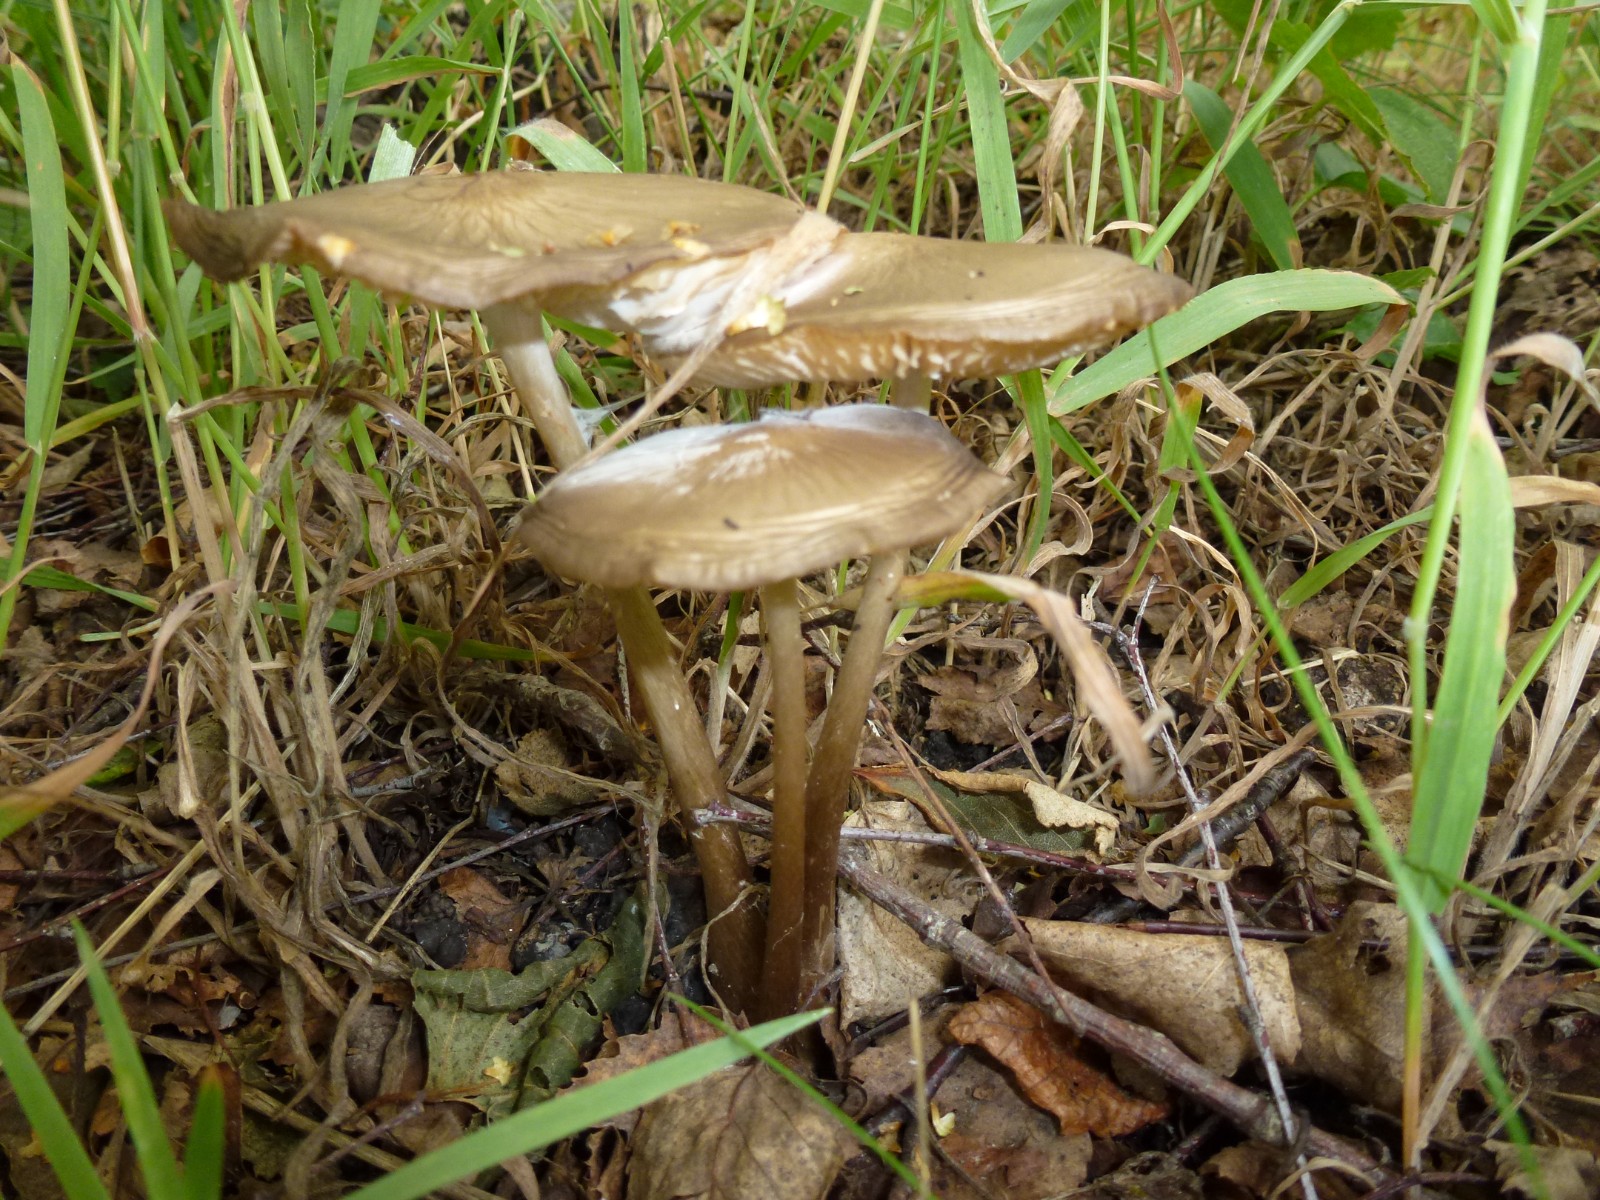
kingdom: Fungi
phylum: Basidiomycota
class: Agaricomycetes
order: Agaricales
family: Physalacriaceae
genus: Hymenopellis
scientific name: Hymenopellis radicata
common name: almindelig pælerodshat
